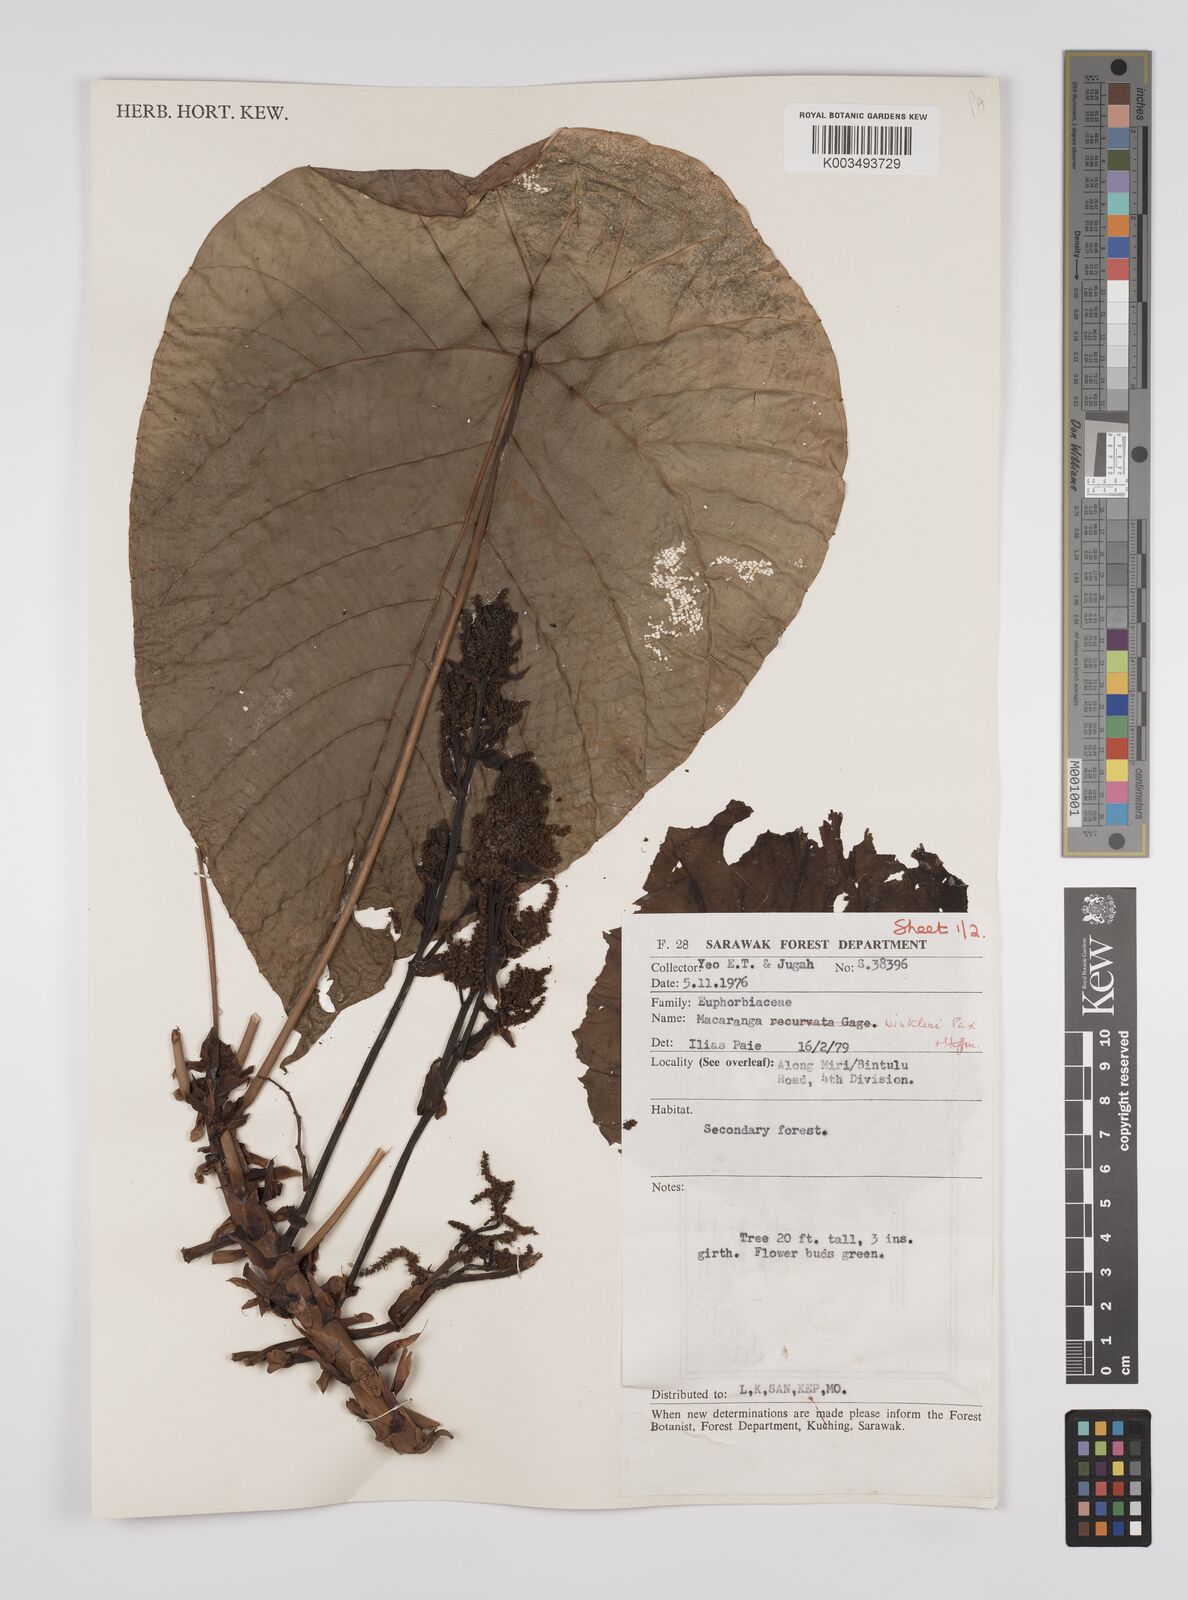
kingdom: Plantae
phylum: Tracheophyta
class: Magnoliopsida
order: Malpighiales
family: Euphorbiaceae
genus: Macaranga
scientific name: Macaranga winkleri
